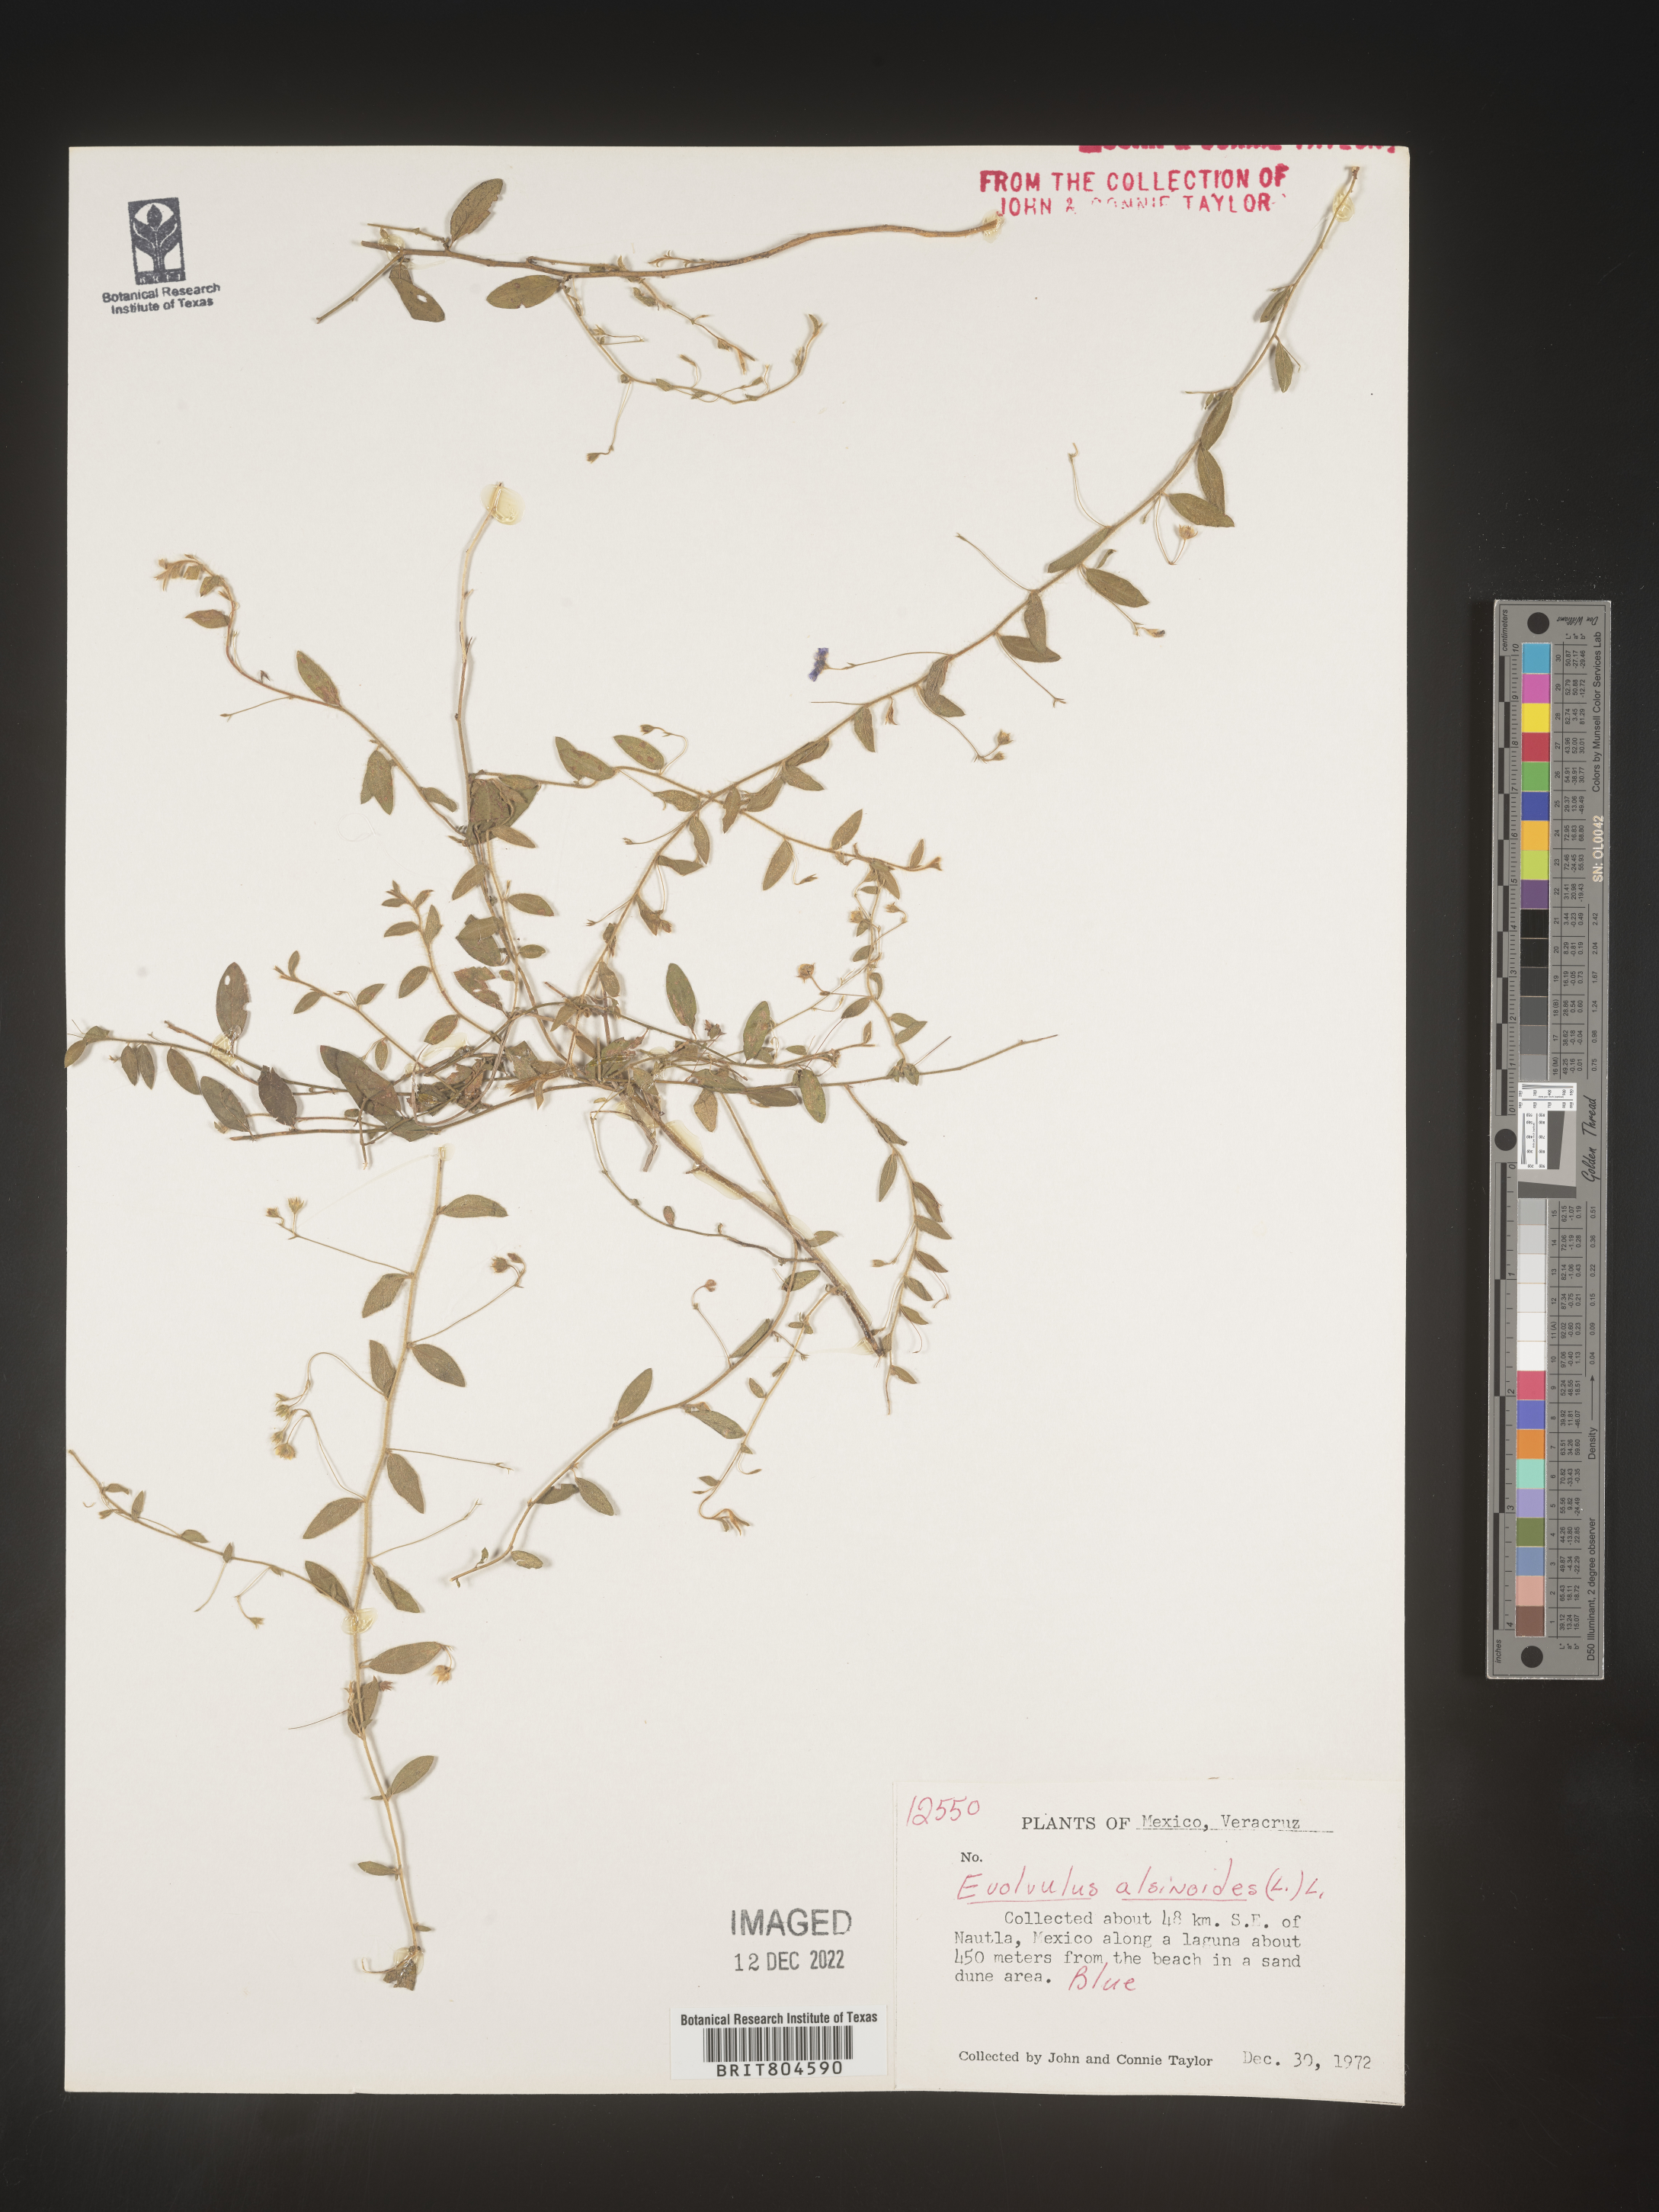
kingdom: Plantae
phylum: Tracheophyta
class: Magnoliopsida
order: Solanales
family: Convolvulaceae
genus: Evolvulus
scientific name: Evolvulus
